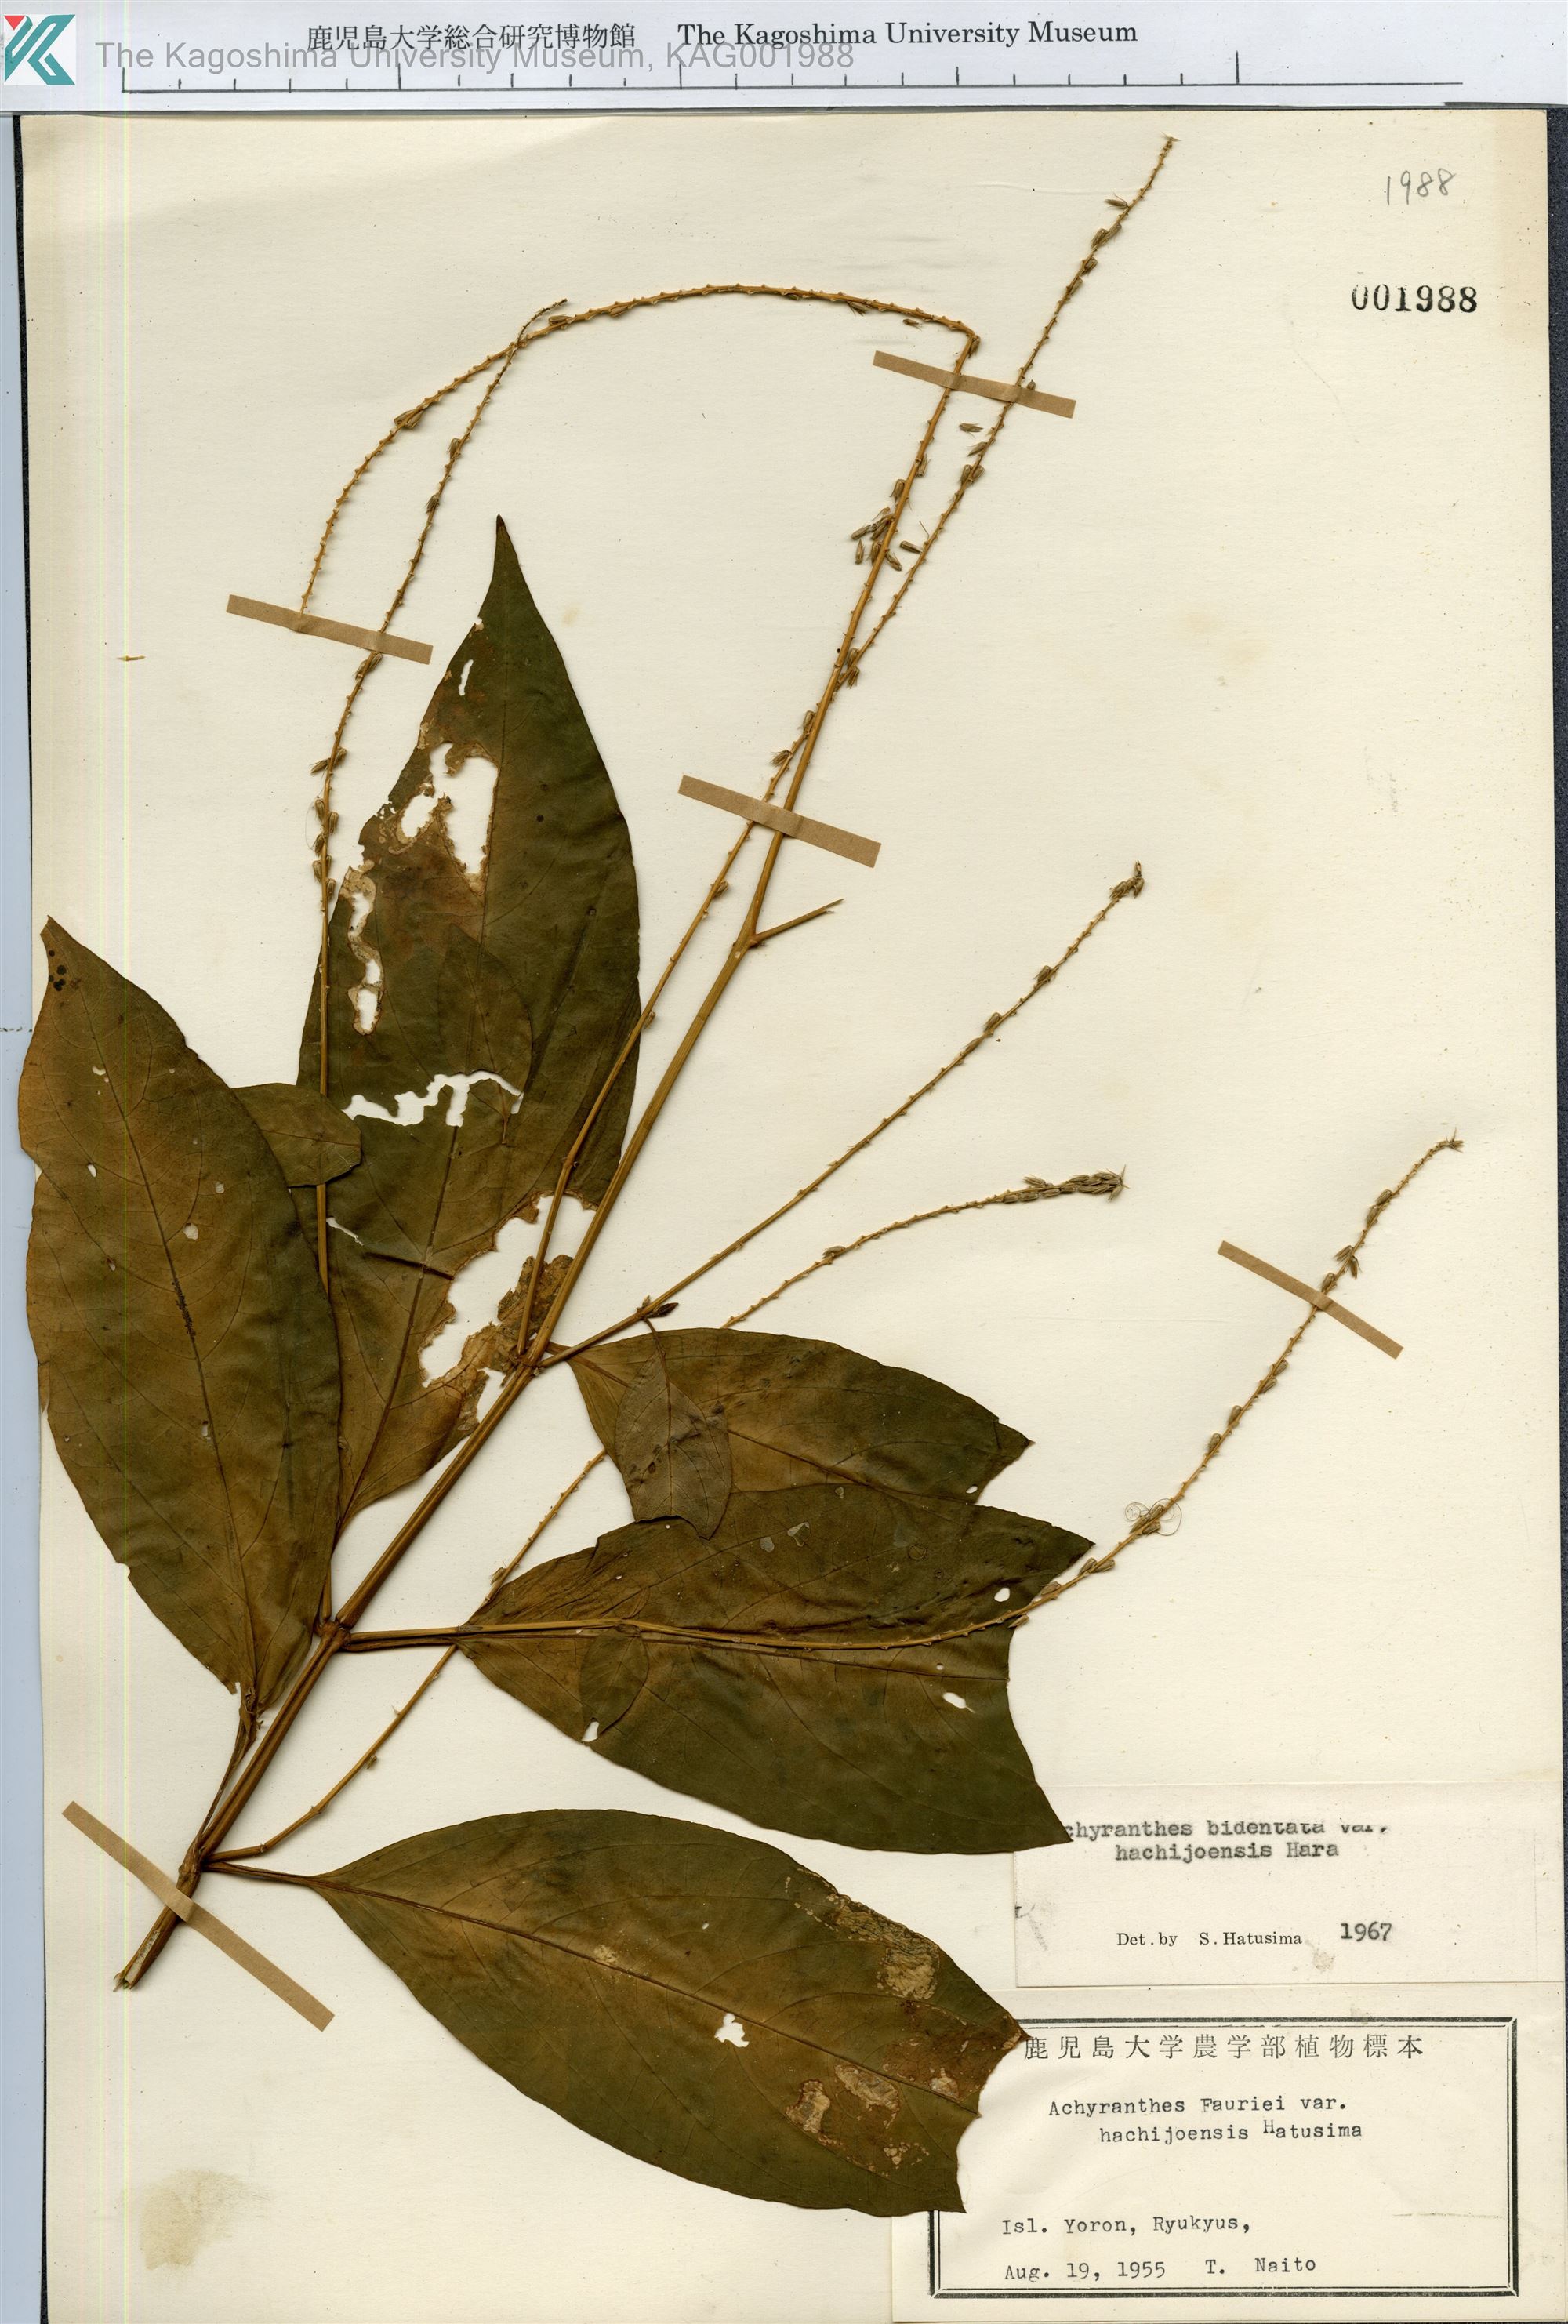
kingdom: Plantae
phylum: Tracheophyta
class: Magnoliopsida
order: Caryophyllales
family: Amaranthaceae
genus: Achyranthes
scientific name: Achyranthes bidentata
